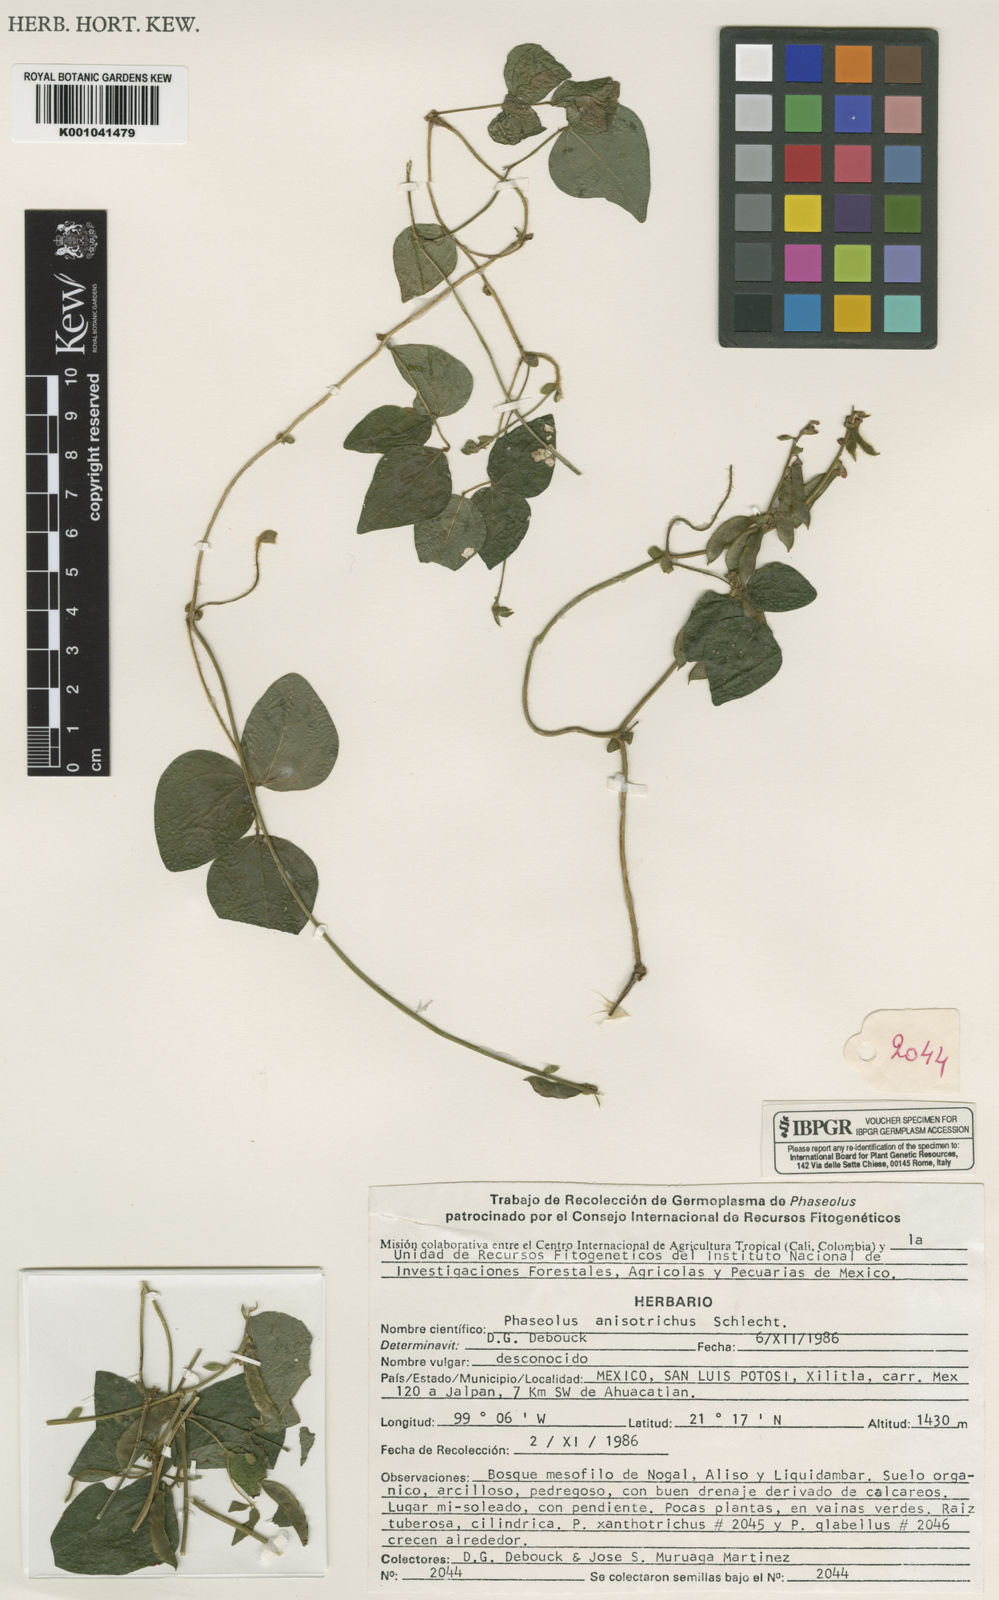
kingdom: Plantae
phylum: Tracheophyta
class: Magnoliopsida
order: Fabales
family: Fabaceae
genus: Phaseolus
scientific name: Phaseolus
